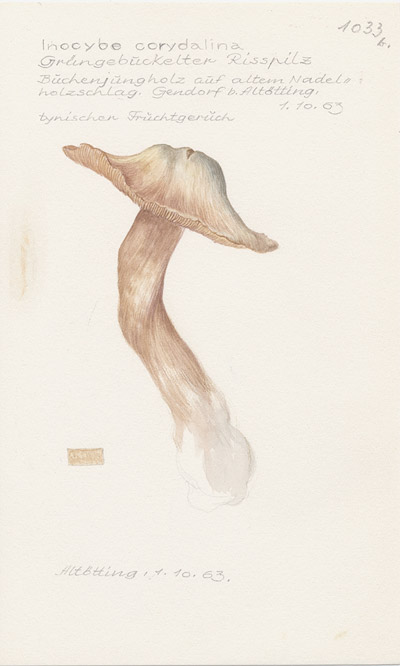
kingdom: Fungi
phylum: Basidiomycota
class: Agaricomycetes
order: Agaricales
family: Inocybaceae
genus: Inocybe
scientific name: Inocybe corydalina
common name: Greenflush fibrecap
